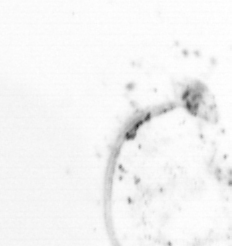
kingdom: Chromista
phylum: Ochrophyta
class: Bacillariophyceae
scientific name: Bacillariophyceae
